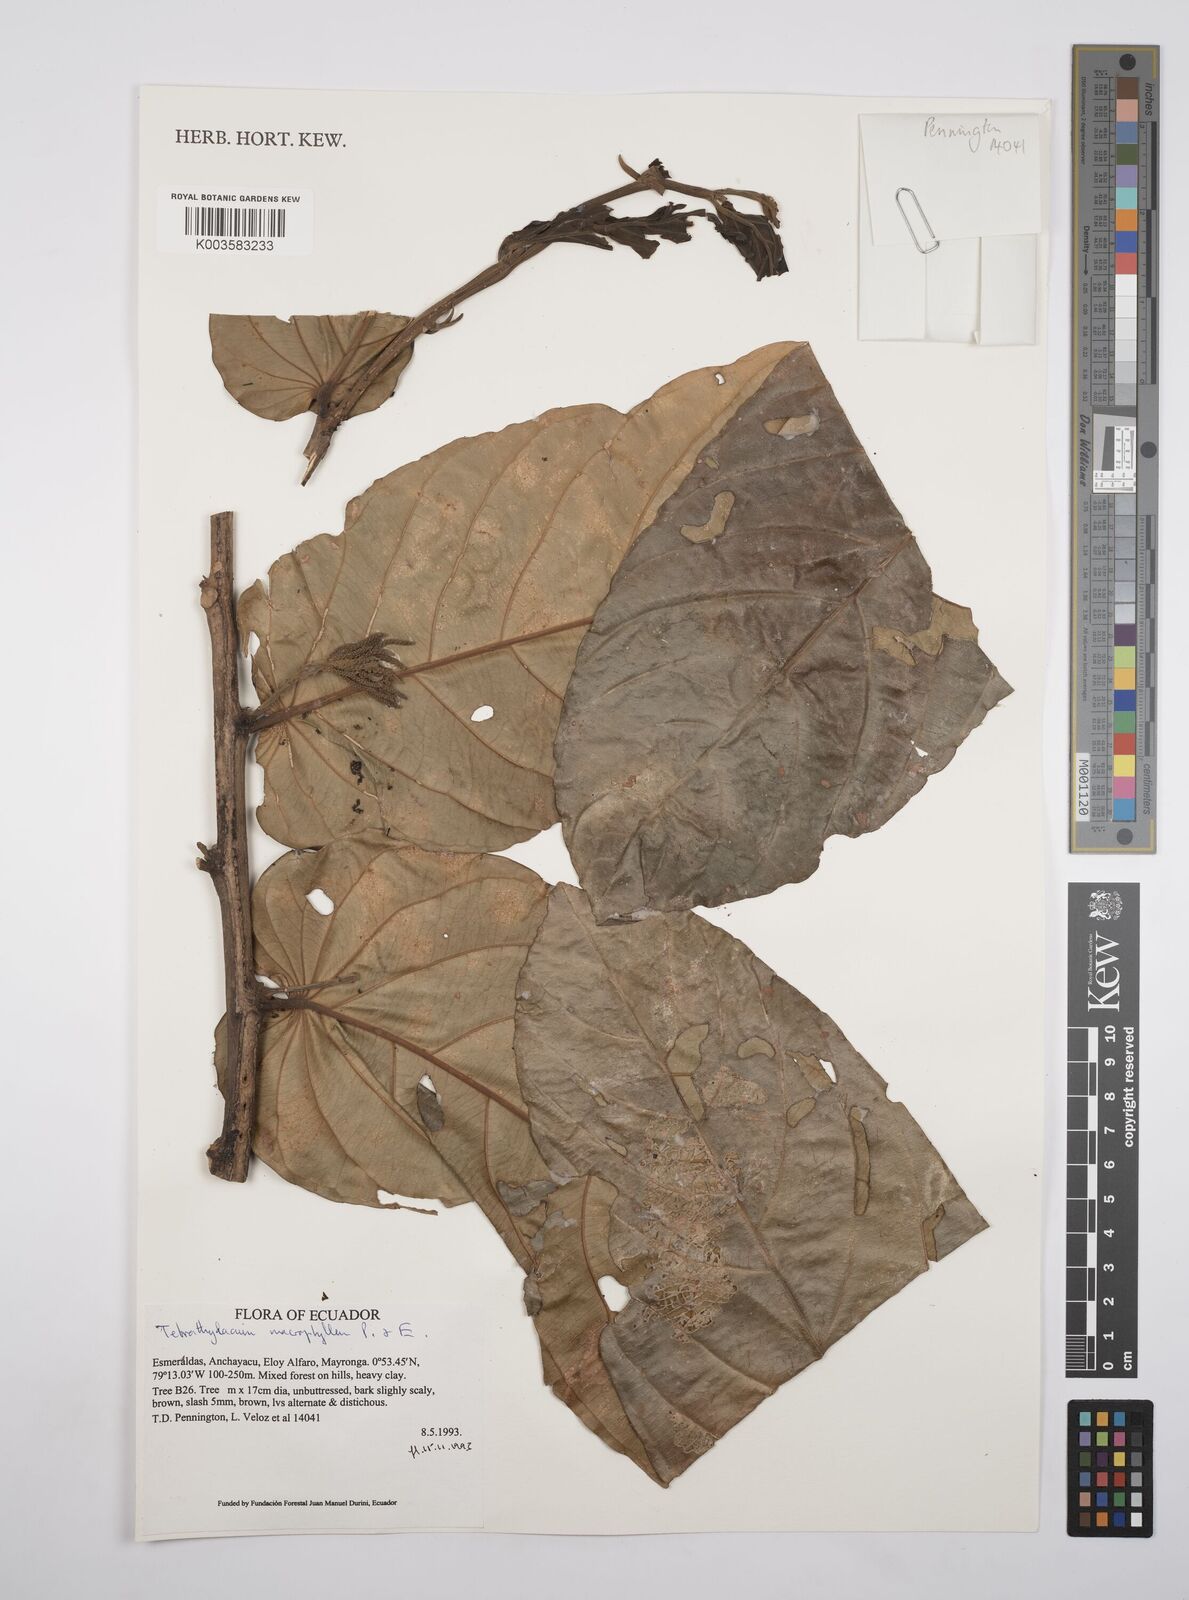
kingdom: Plantae
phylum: Tracheophyta
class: Magnoliopsida
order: Malpighiales
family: Salicaceae
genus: Tetrathylacium
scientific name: Tetrathylacium macrophyllum
